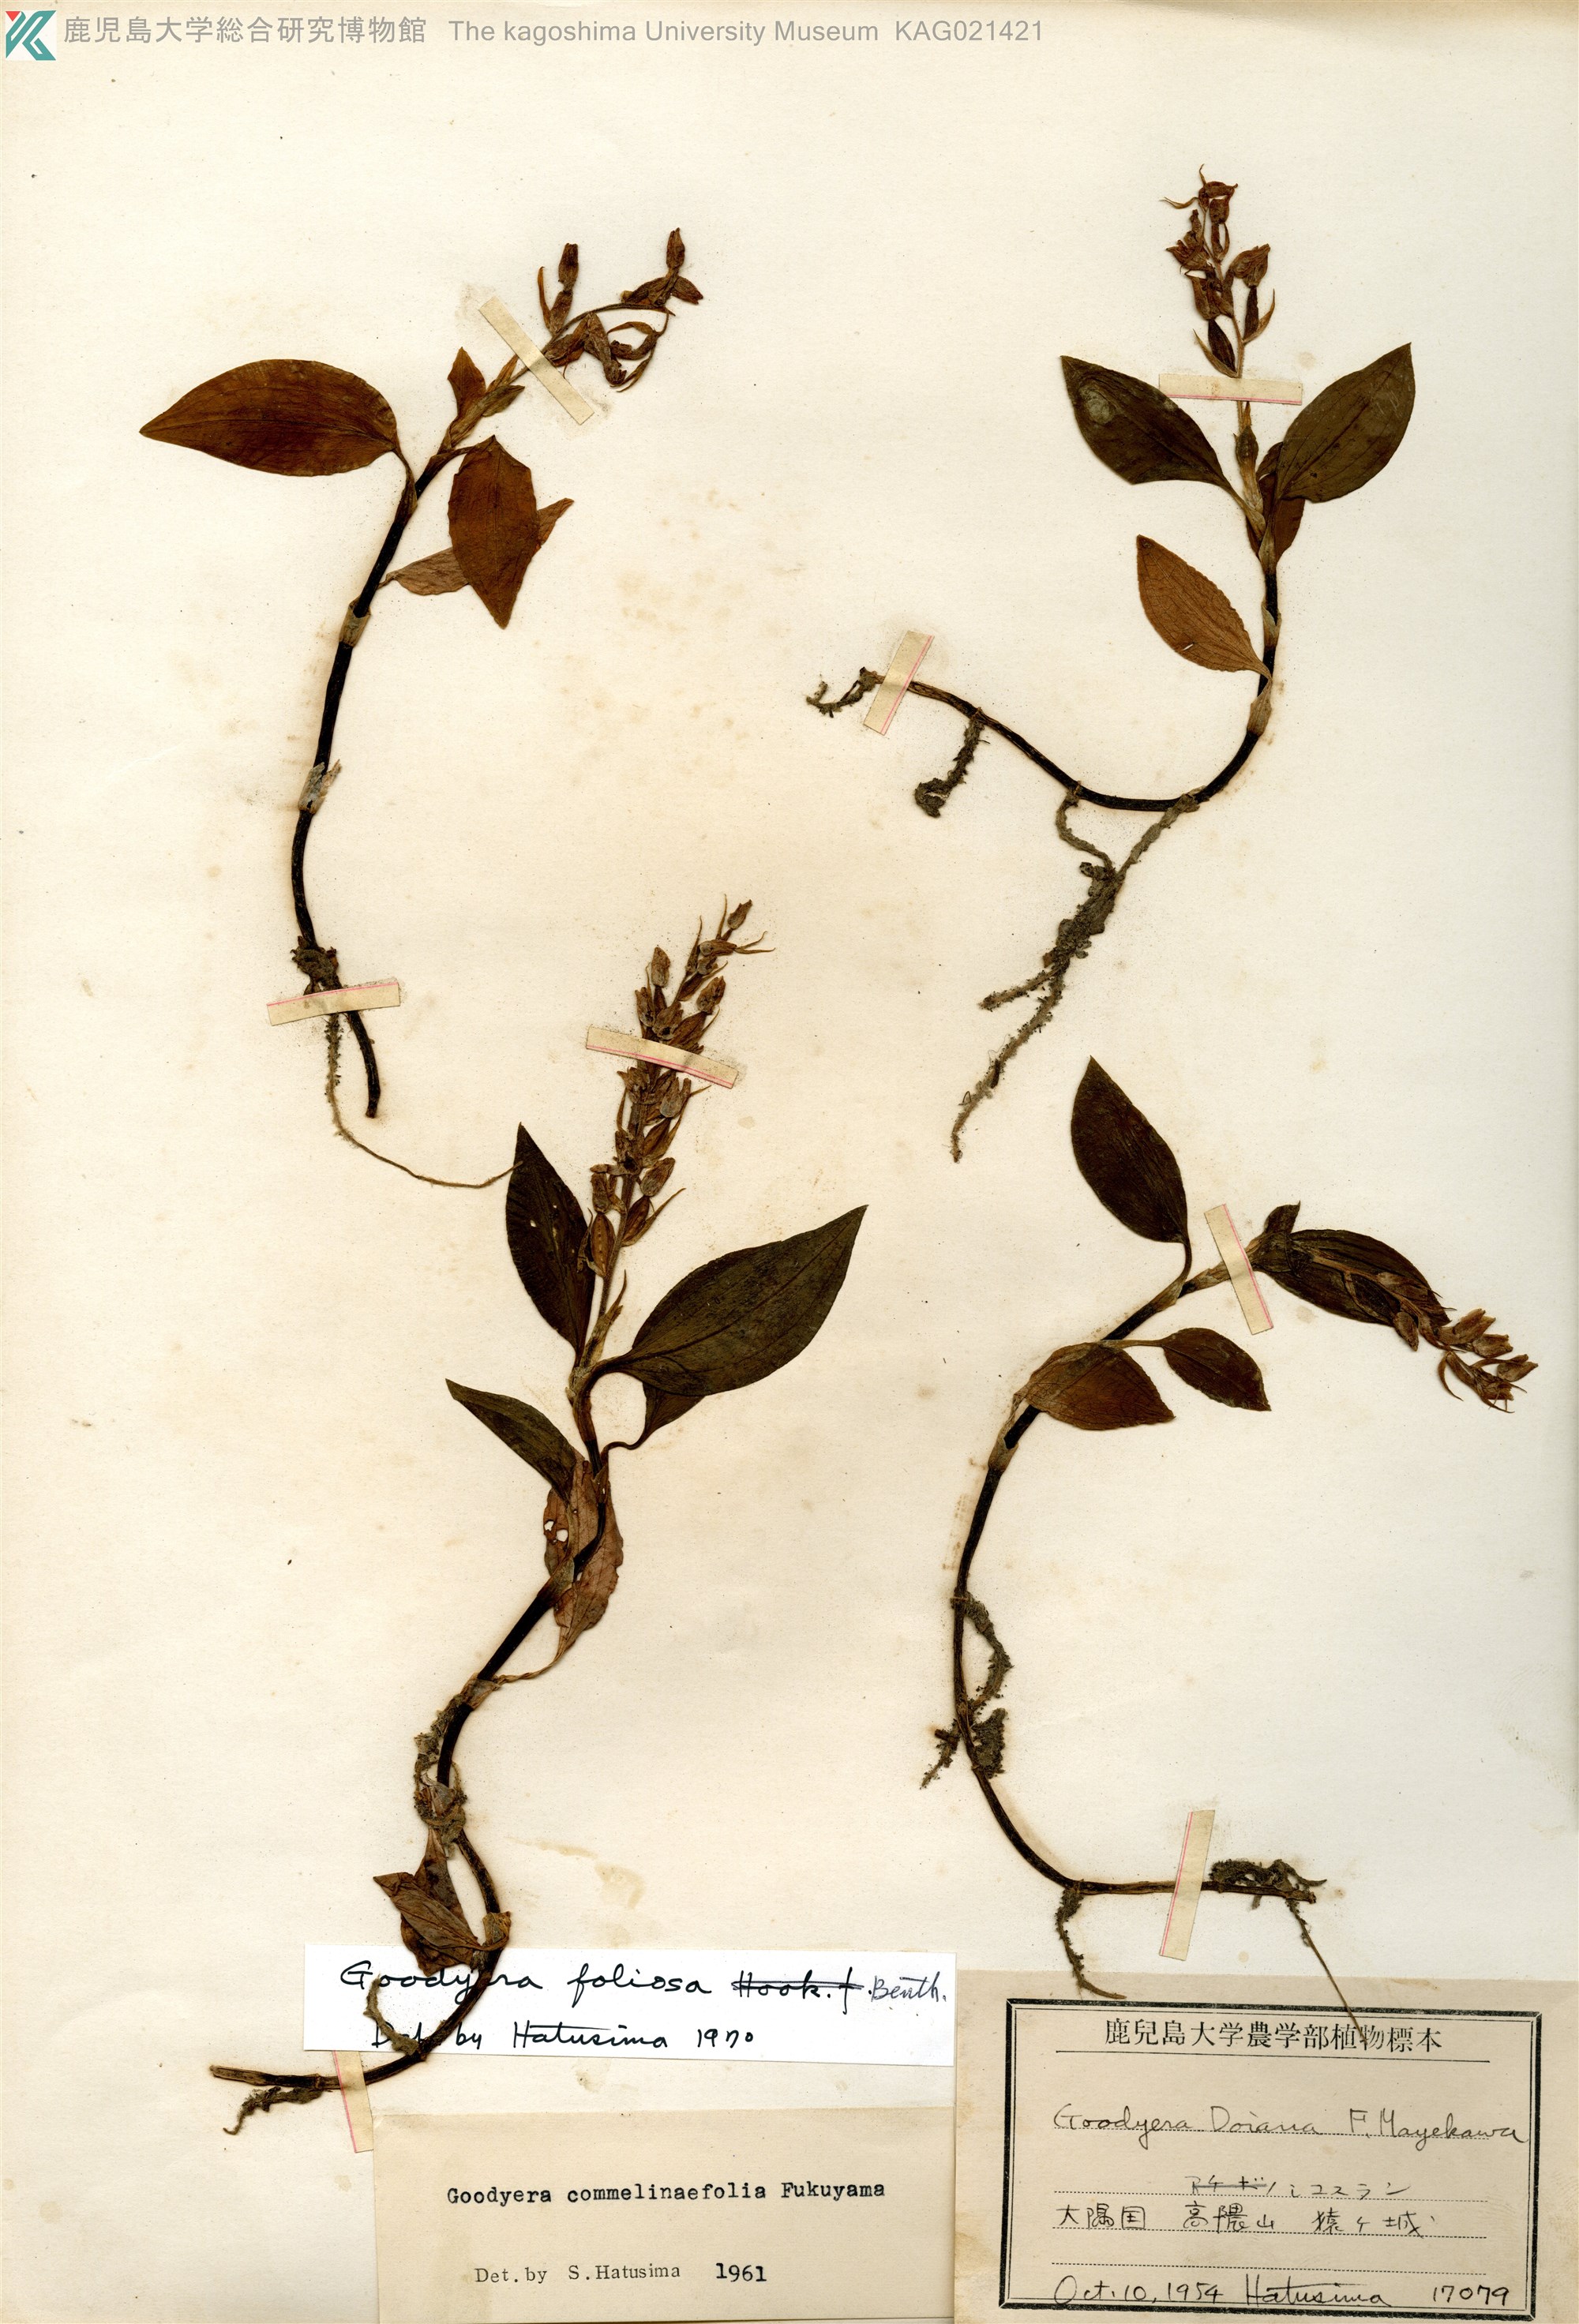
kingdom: Plantae
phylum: Tracheophyta
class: Liliopsida
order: Asparagales
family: Orchidaceae
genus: Goodyera
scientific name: Goodyera foliosa
